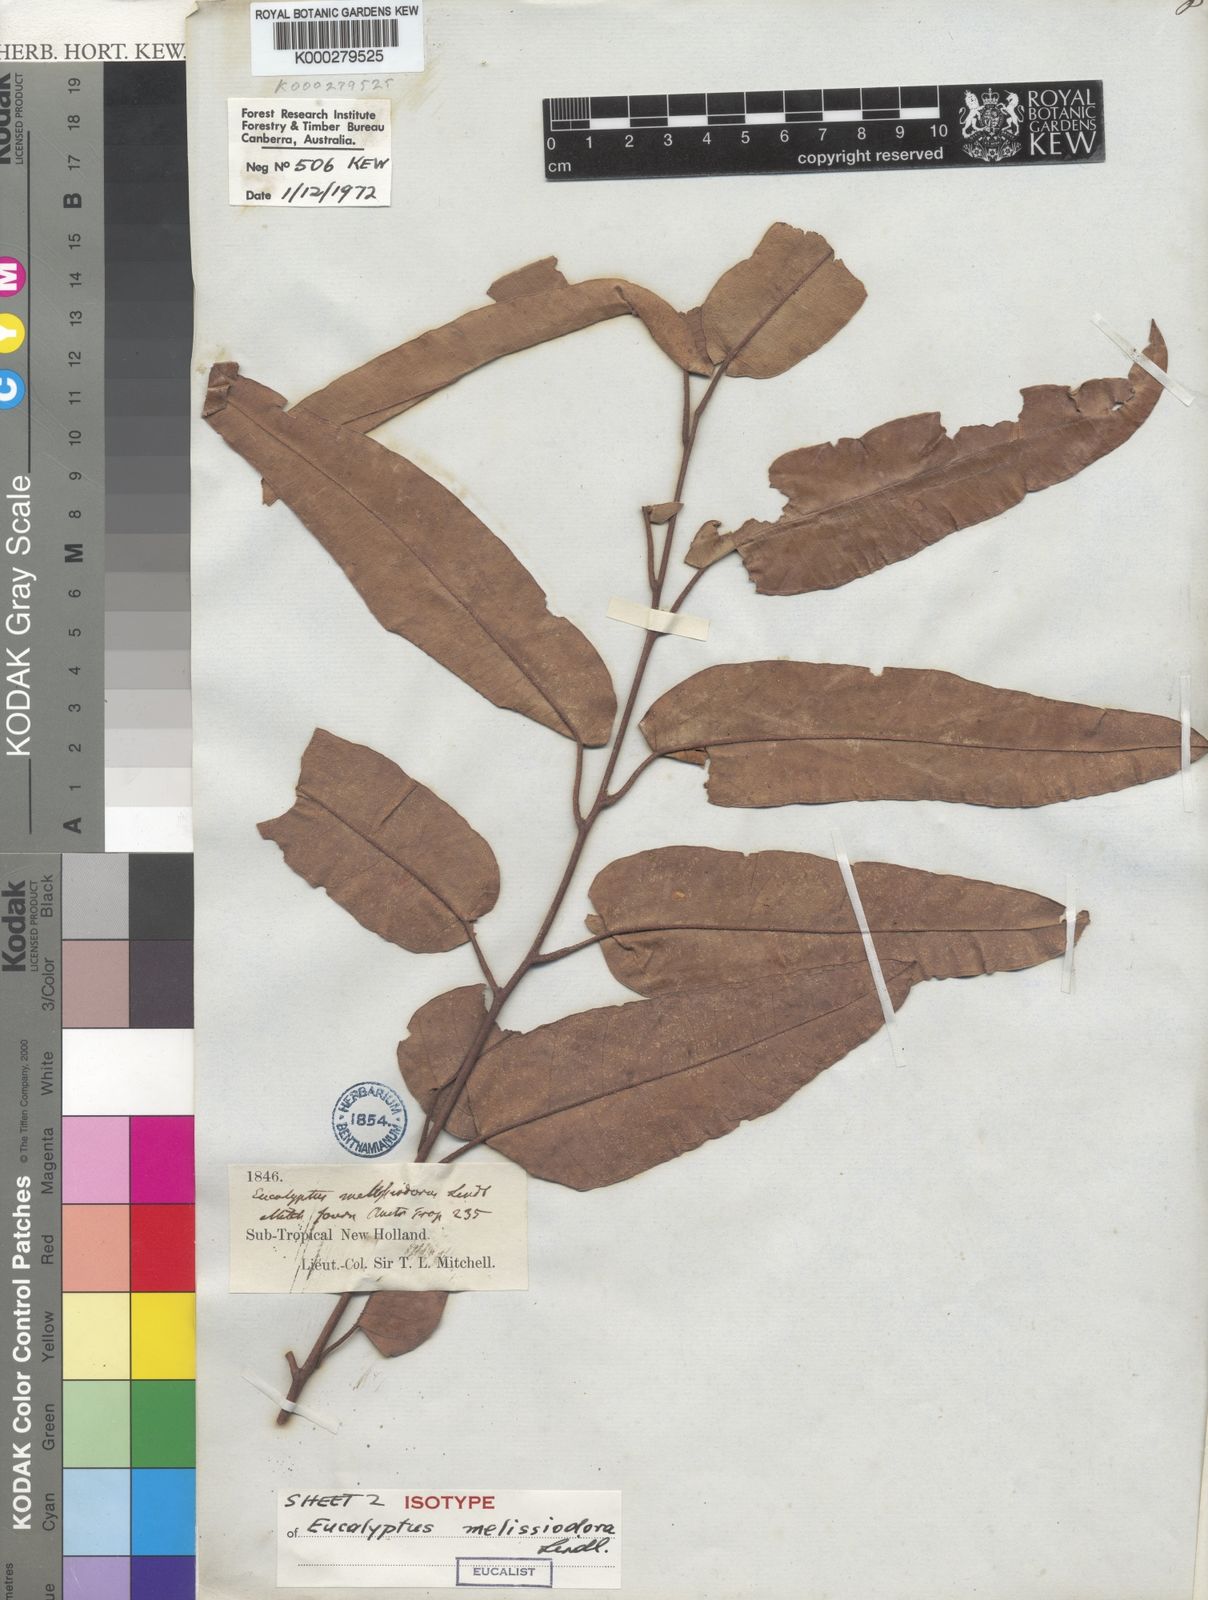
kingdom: Plantae
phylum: Tracheophyta
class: Magnoliopsida
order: Myrtales
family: Myrtaceae
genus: Corymbia
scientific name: Corymbia citriodora
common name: Lemonscented gum
